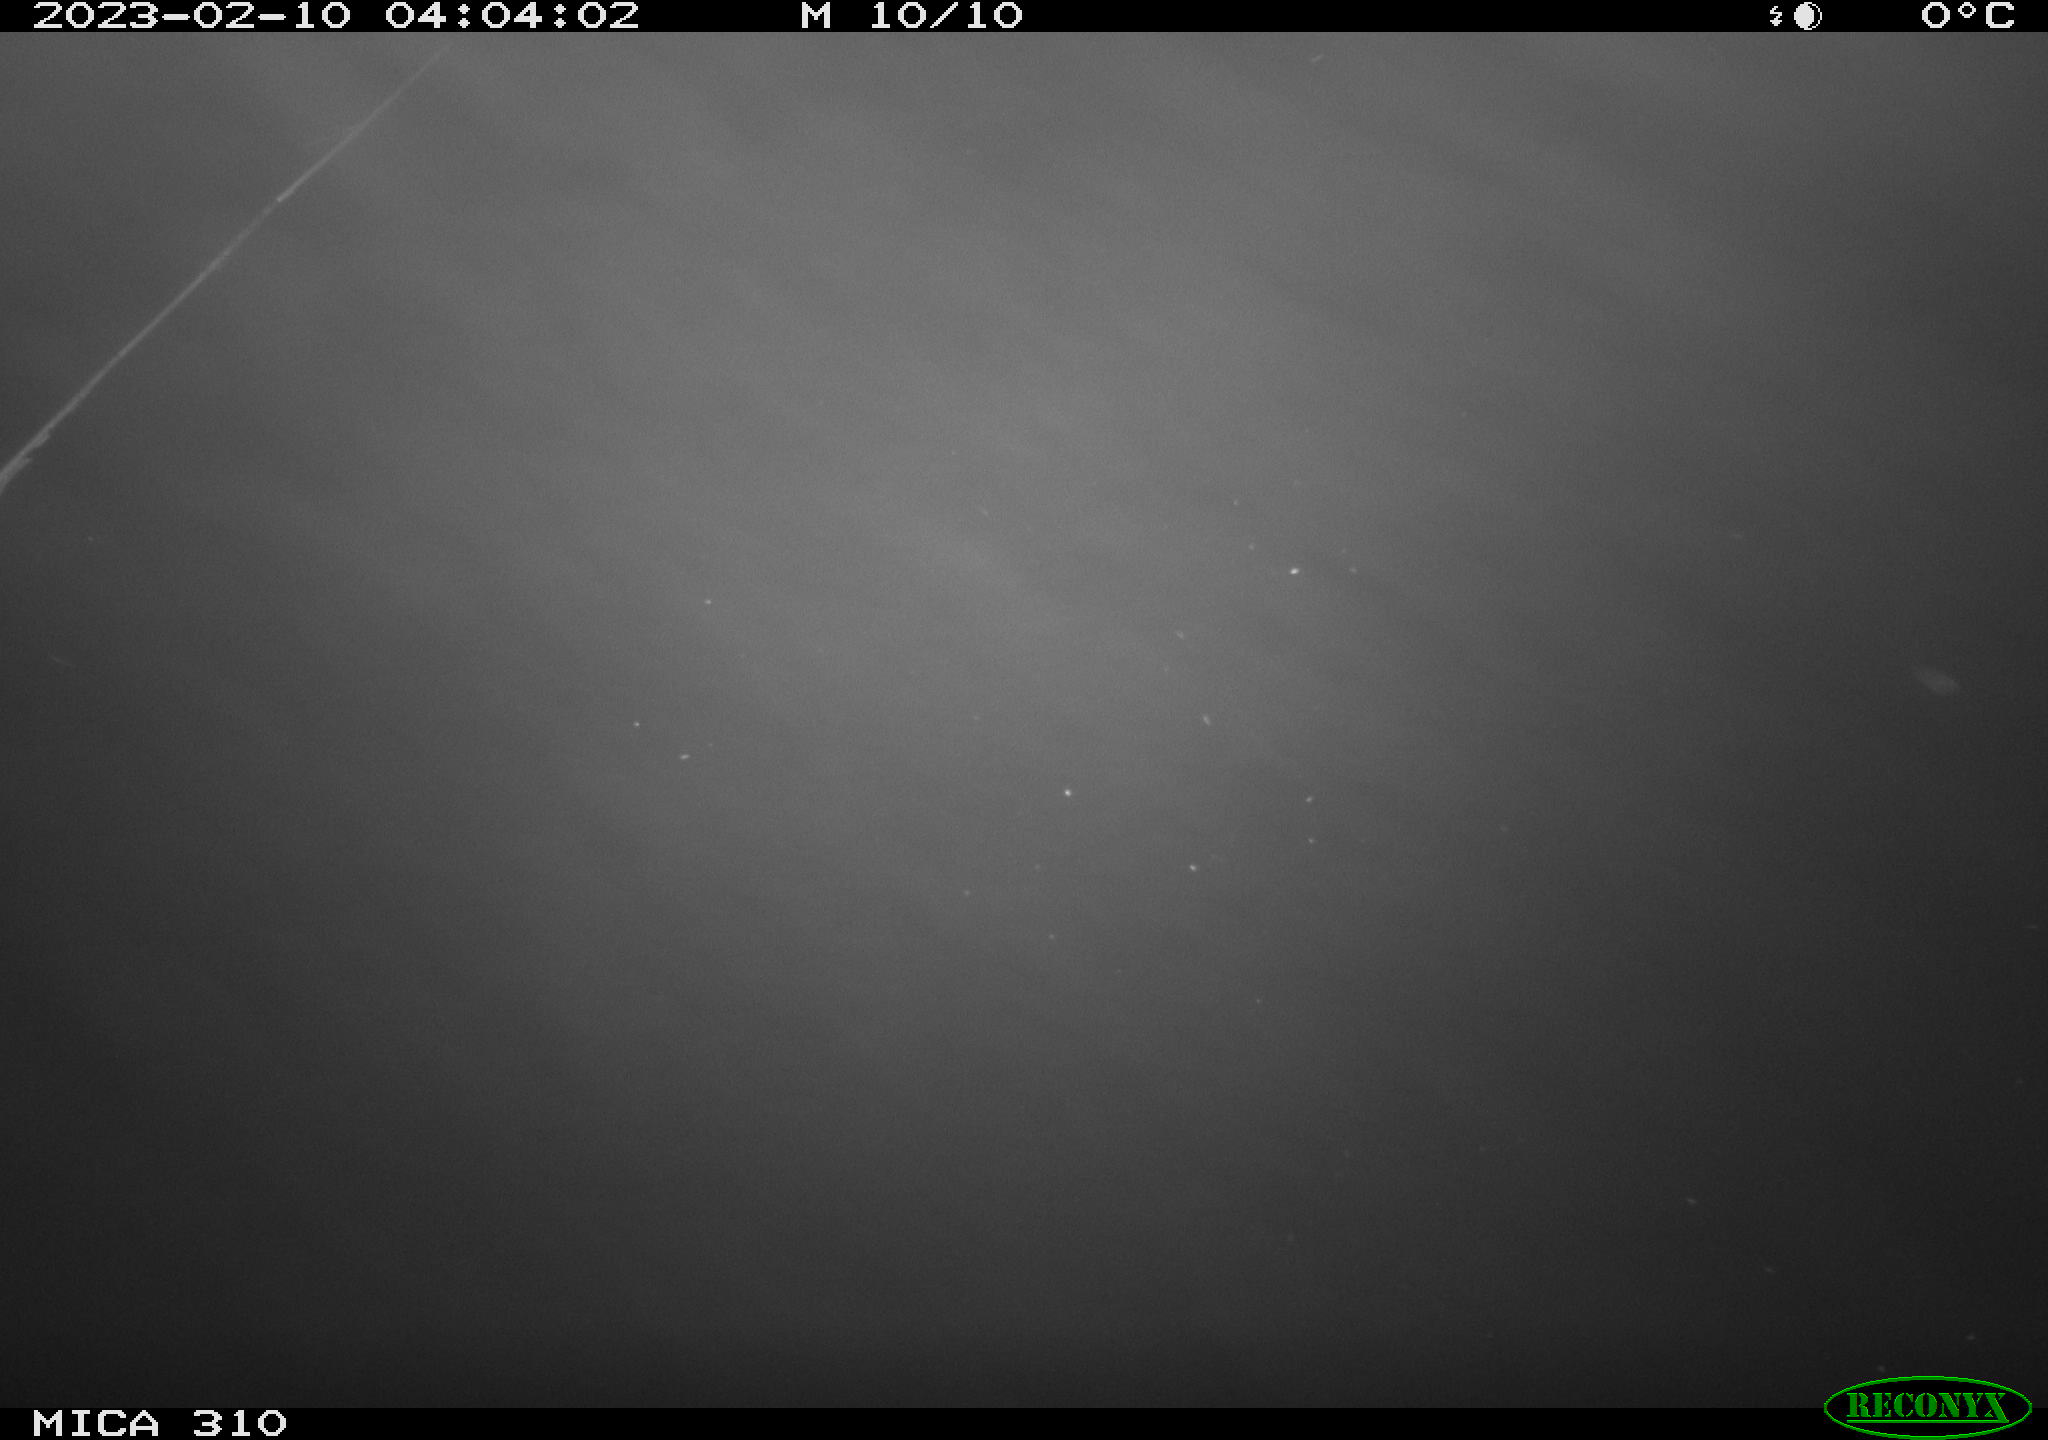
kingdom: Animalia
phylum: Chordata
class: Mammalia
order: Rodentia
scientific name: Rodentia
